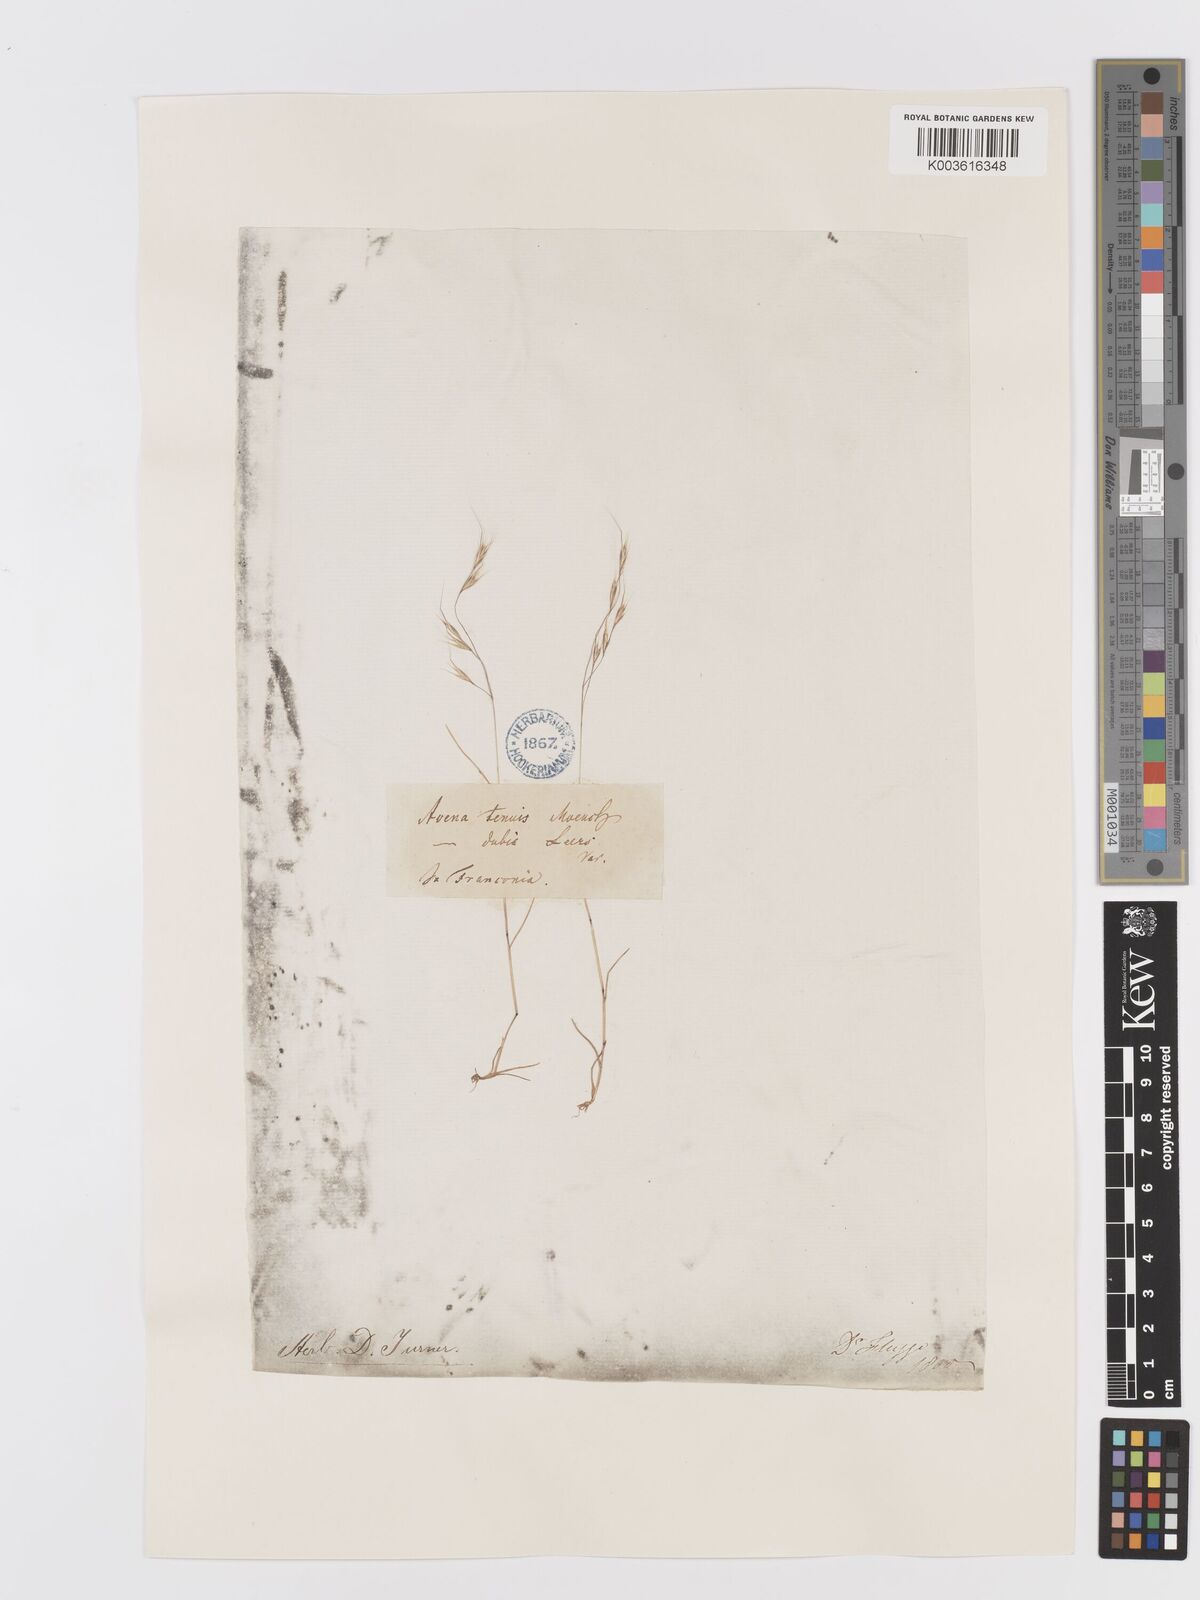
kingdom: Plantae
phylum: Tracheophyta
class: Liliopsida
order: Poales
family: Poaceae
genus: Ventenata
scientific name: Ventenata dubia
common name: North africa grass
